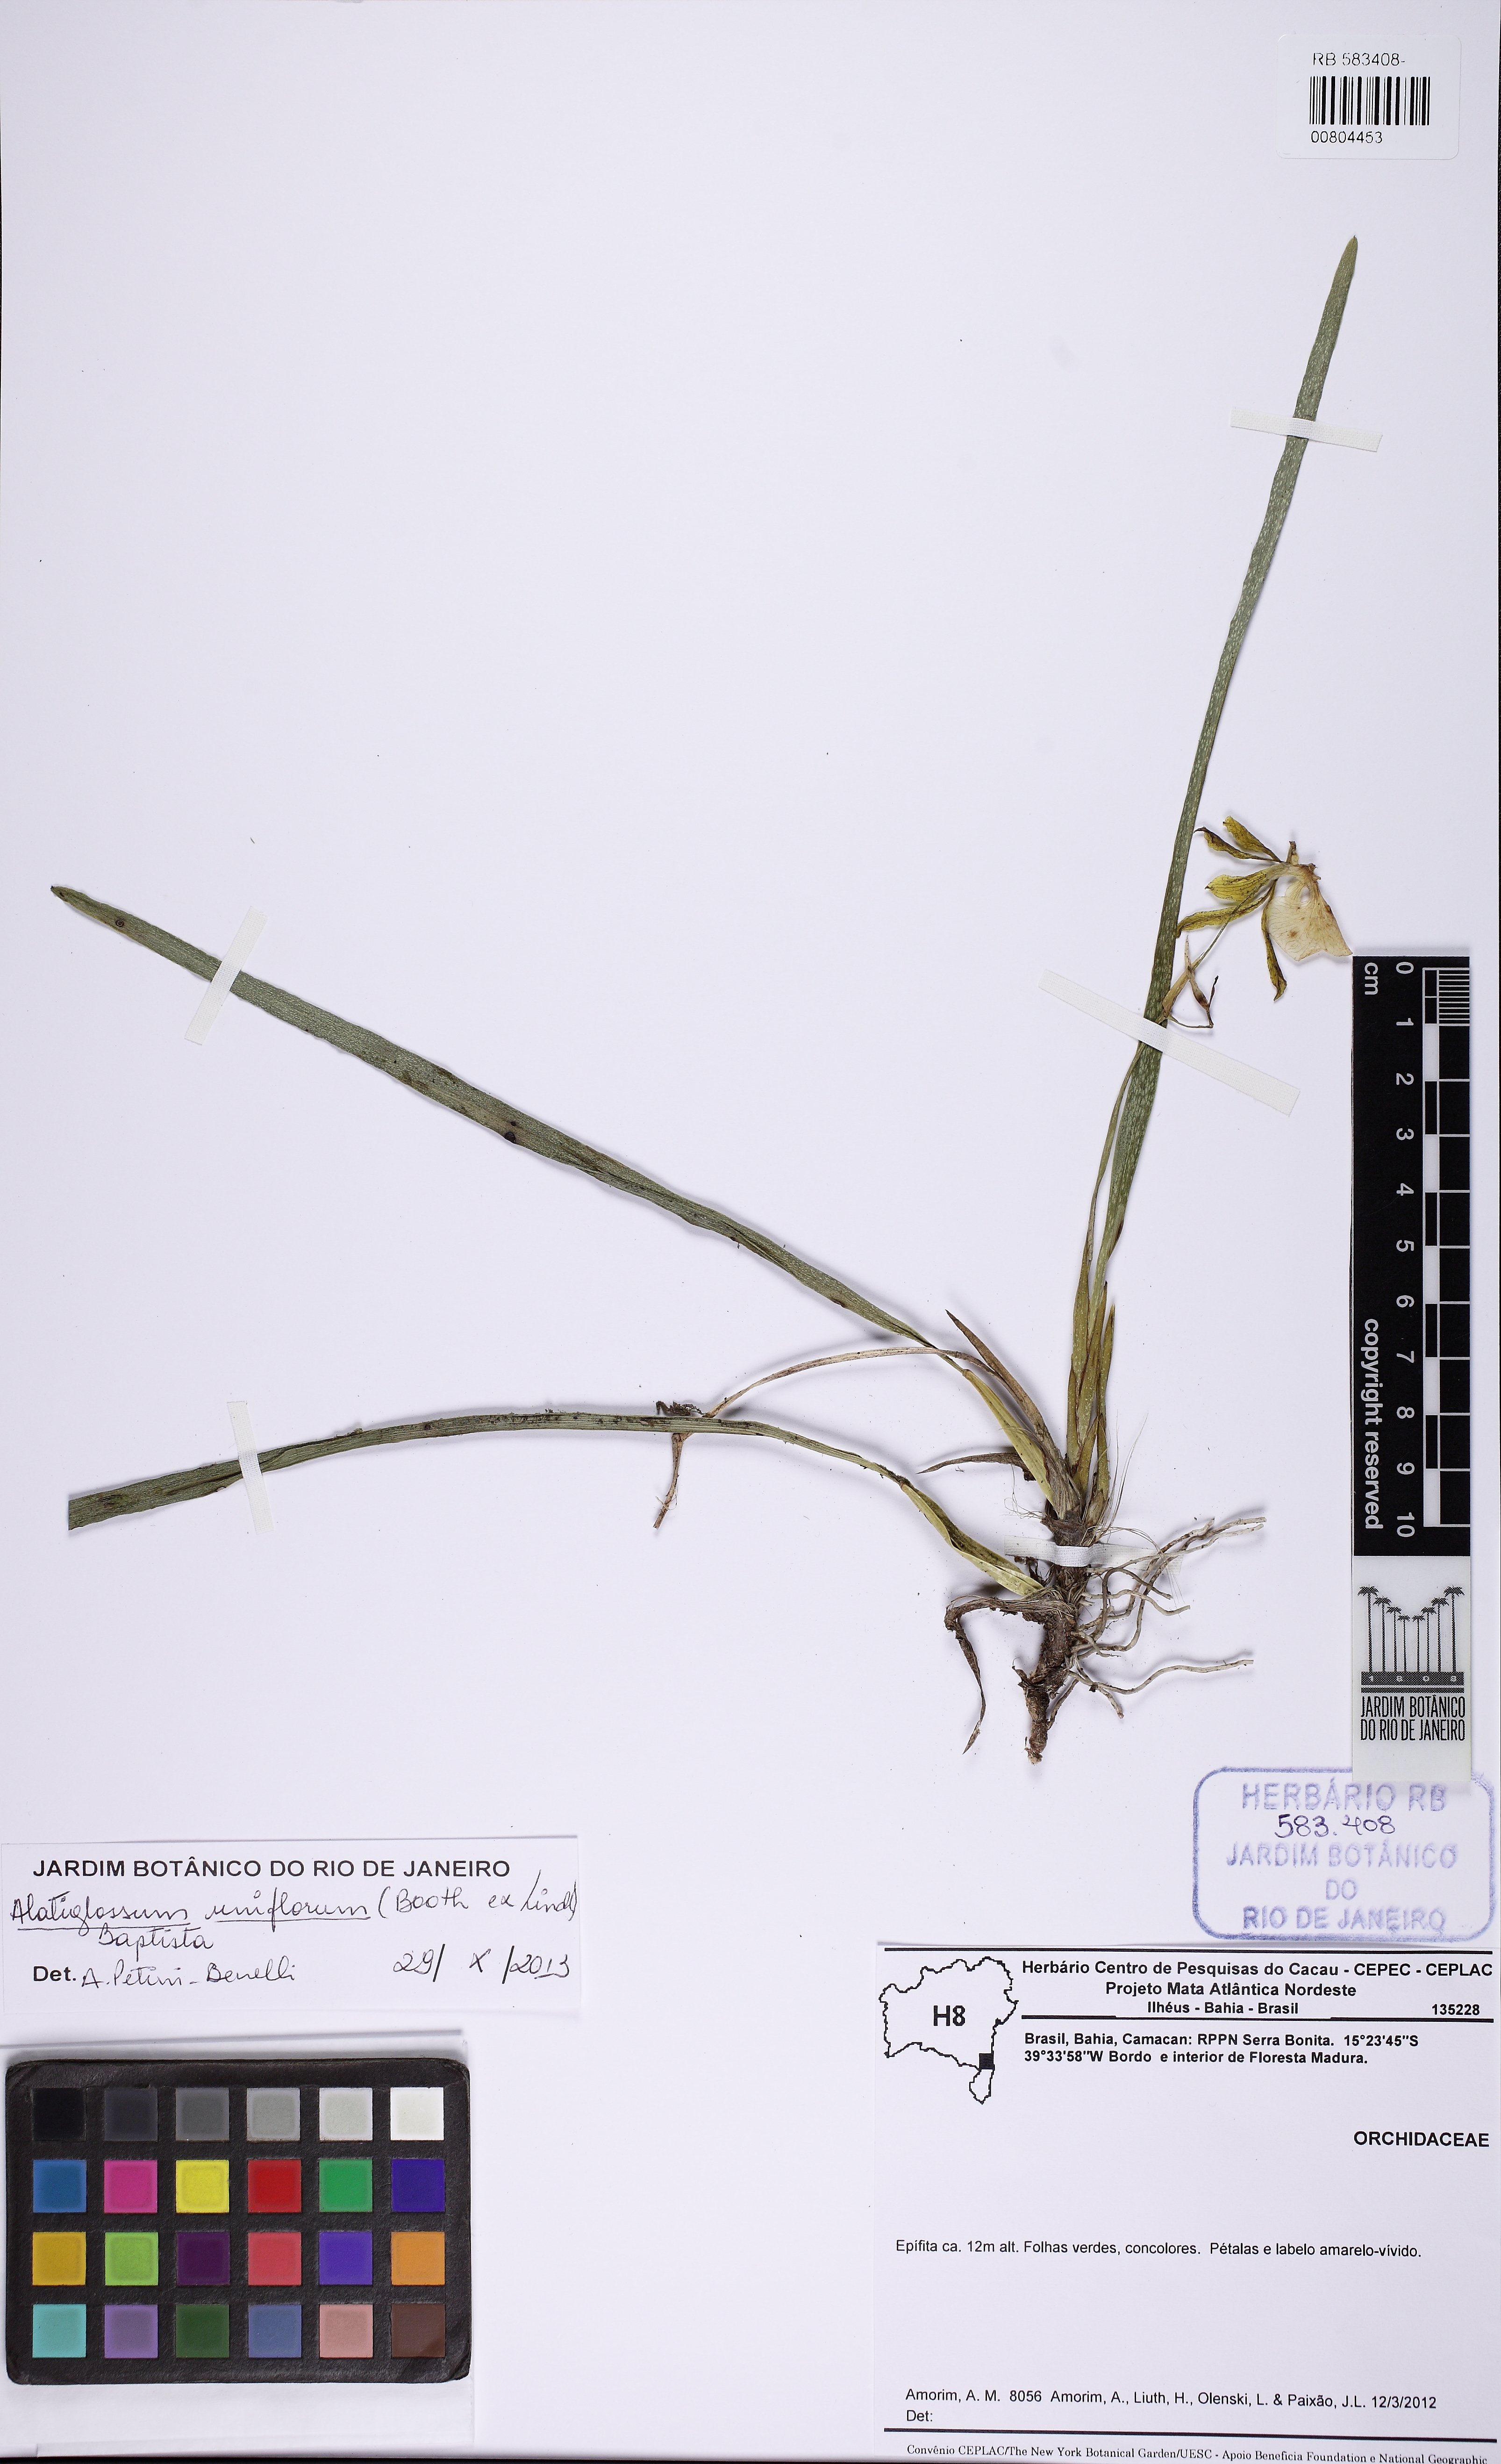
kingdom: Plantae
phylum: Tracheophyta
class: Liliopsida
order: Asparagales
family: Orchidaceae
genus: Gomesa
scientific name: Gomesa uniflora
